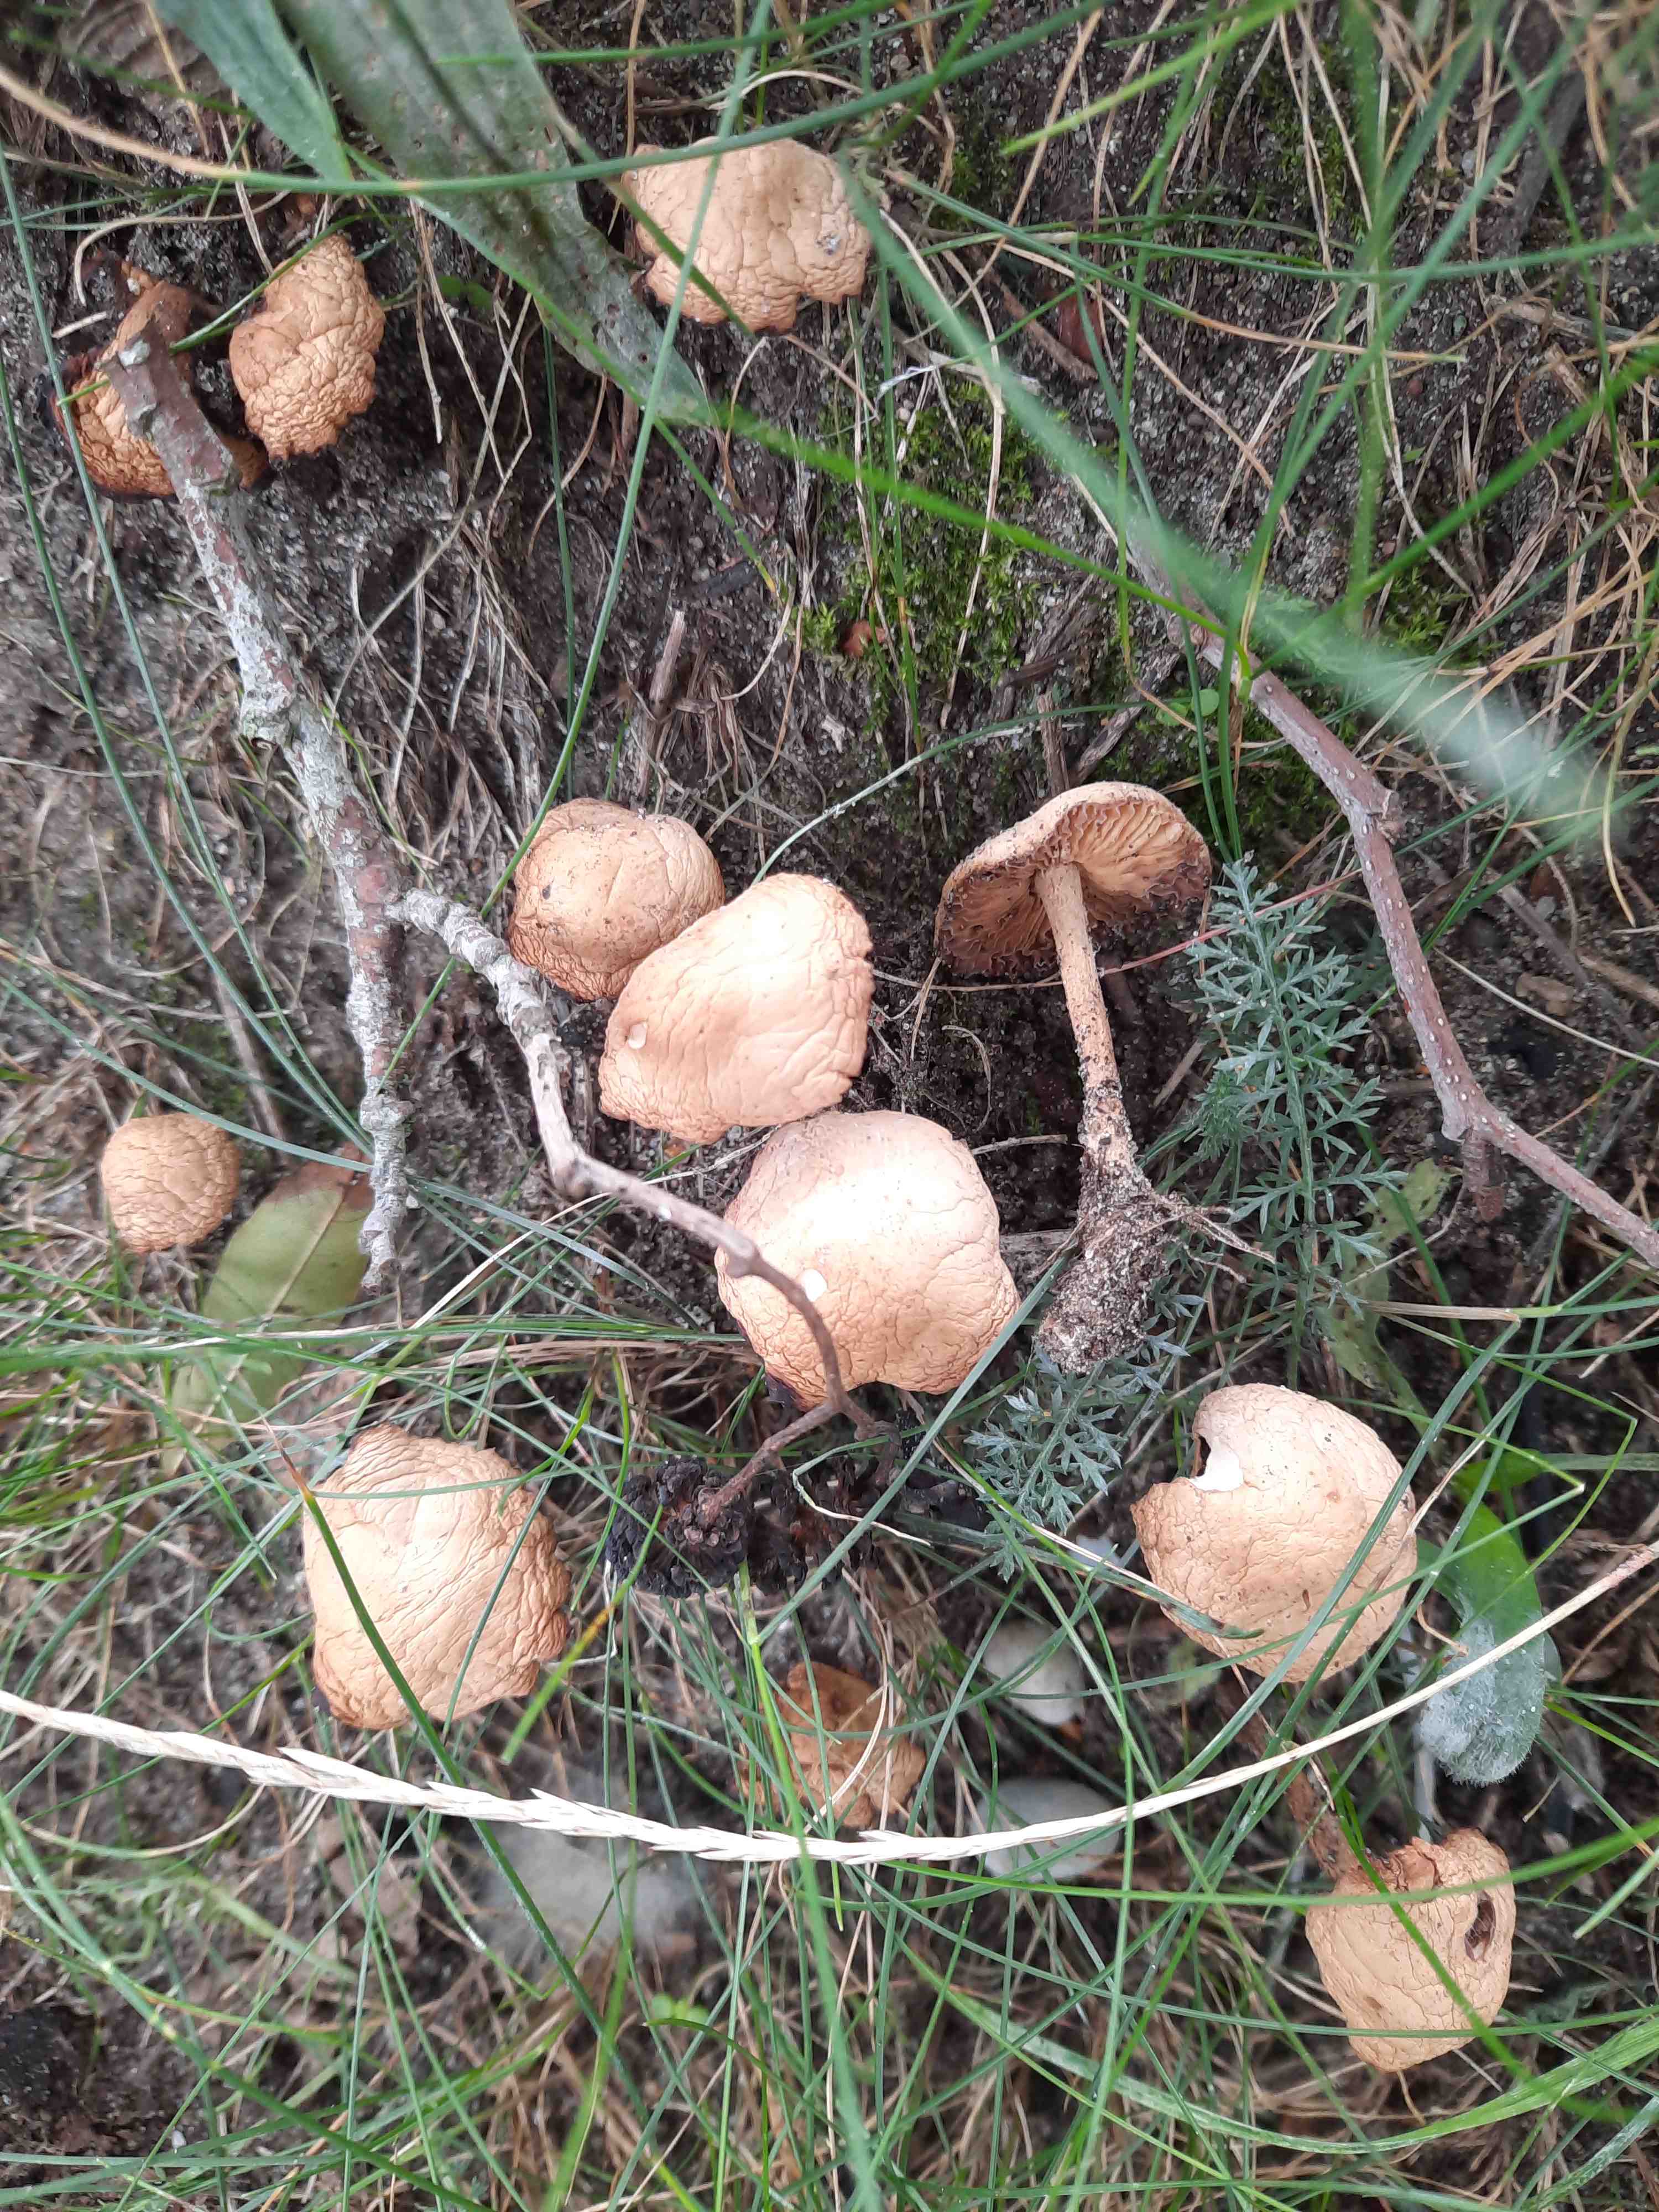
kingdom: Fungi
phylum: Basidiomycota
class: Agaricomycetes
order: Agaricales
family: Marasmiaceae
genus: Marasmius
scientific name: Marasmius oreades
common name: elledans-bruskhat
